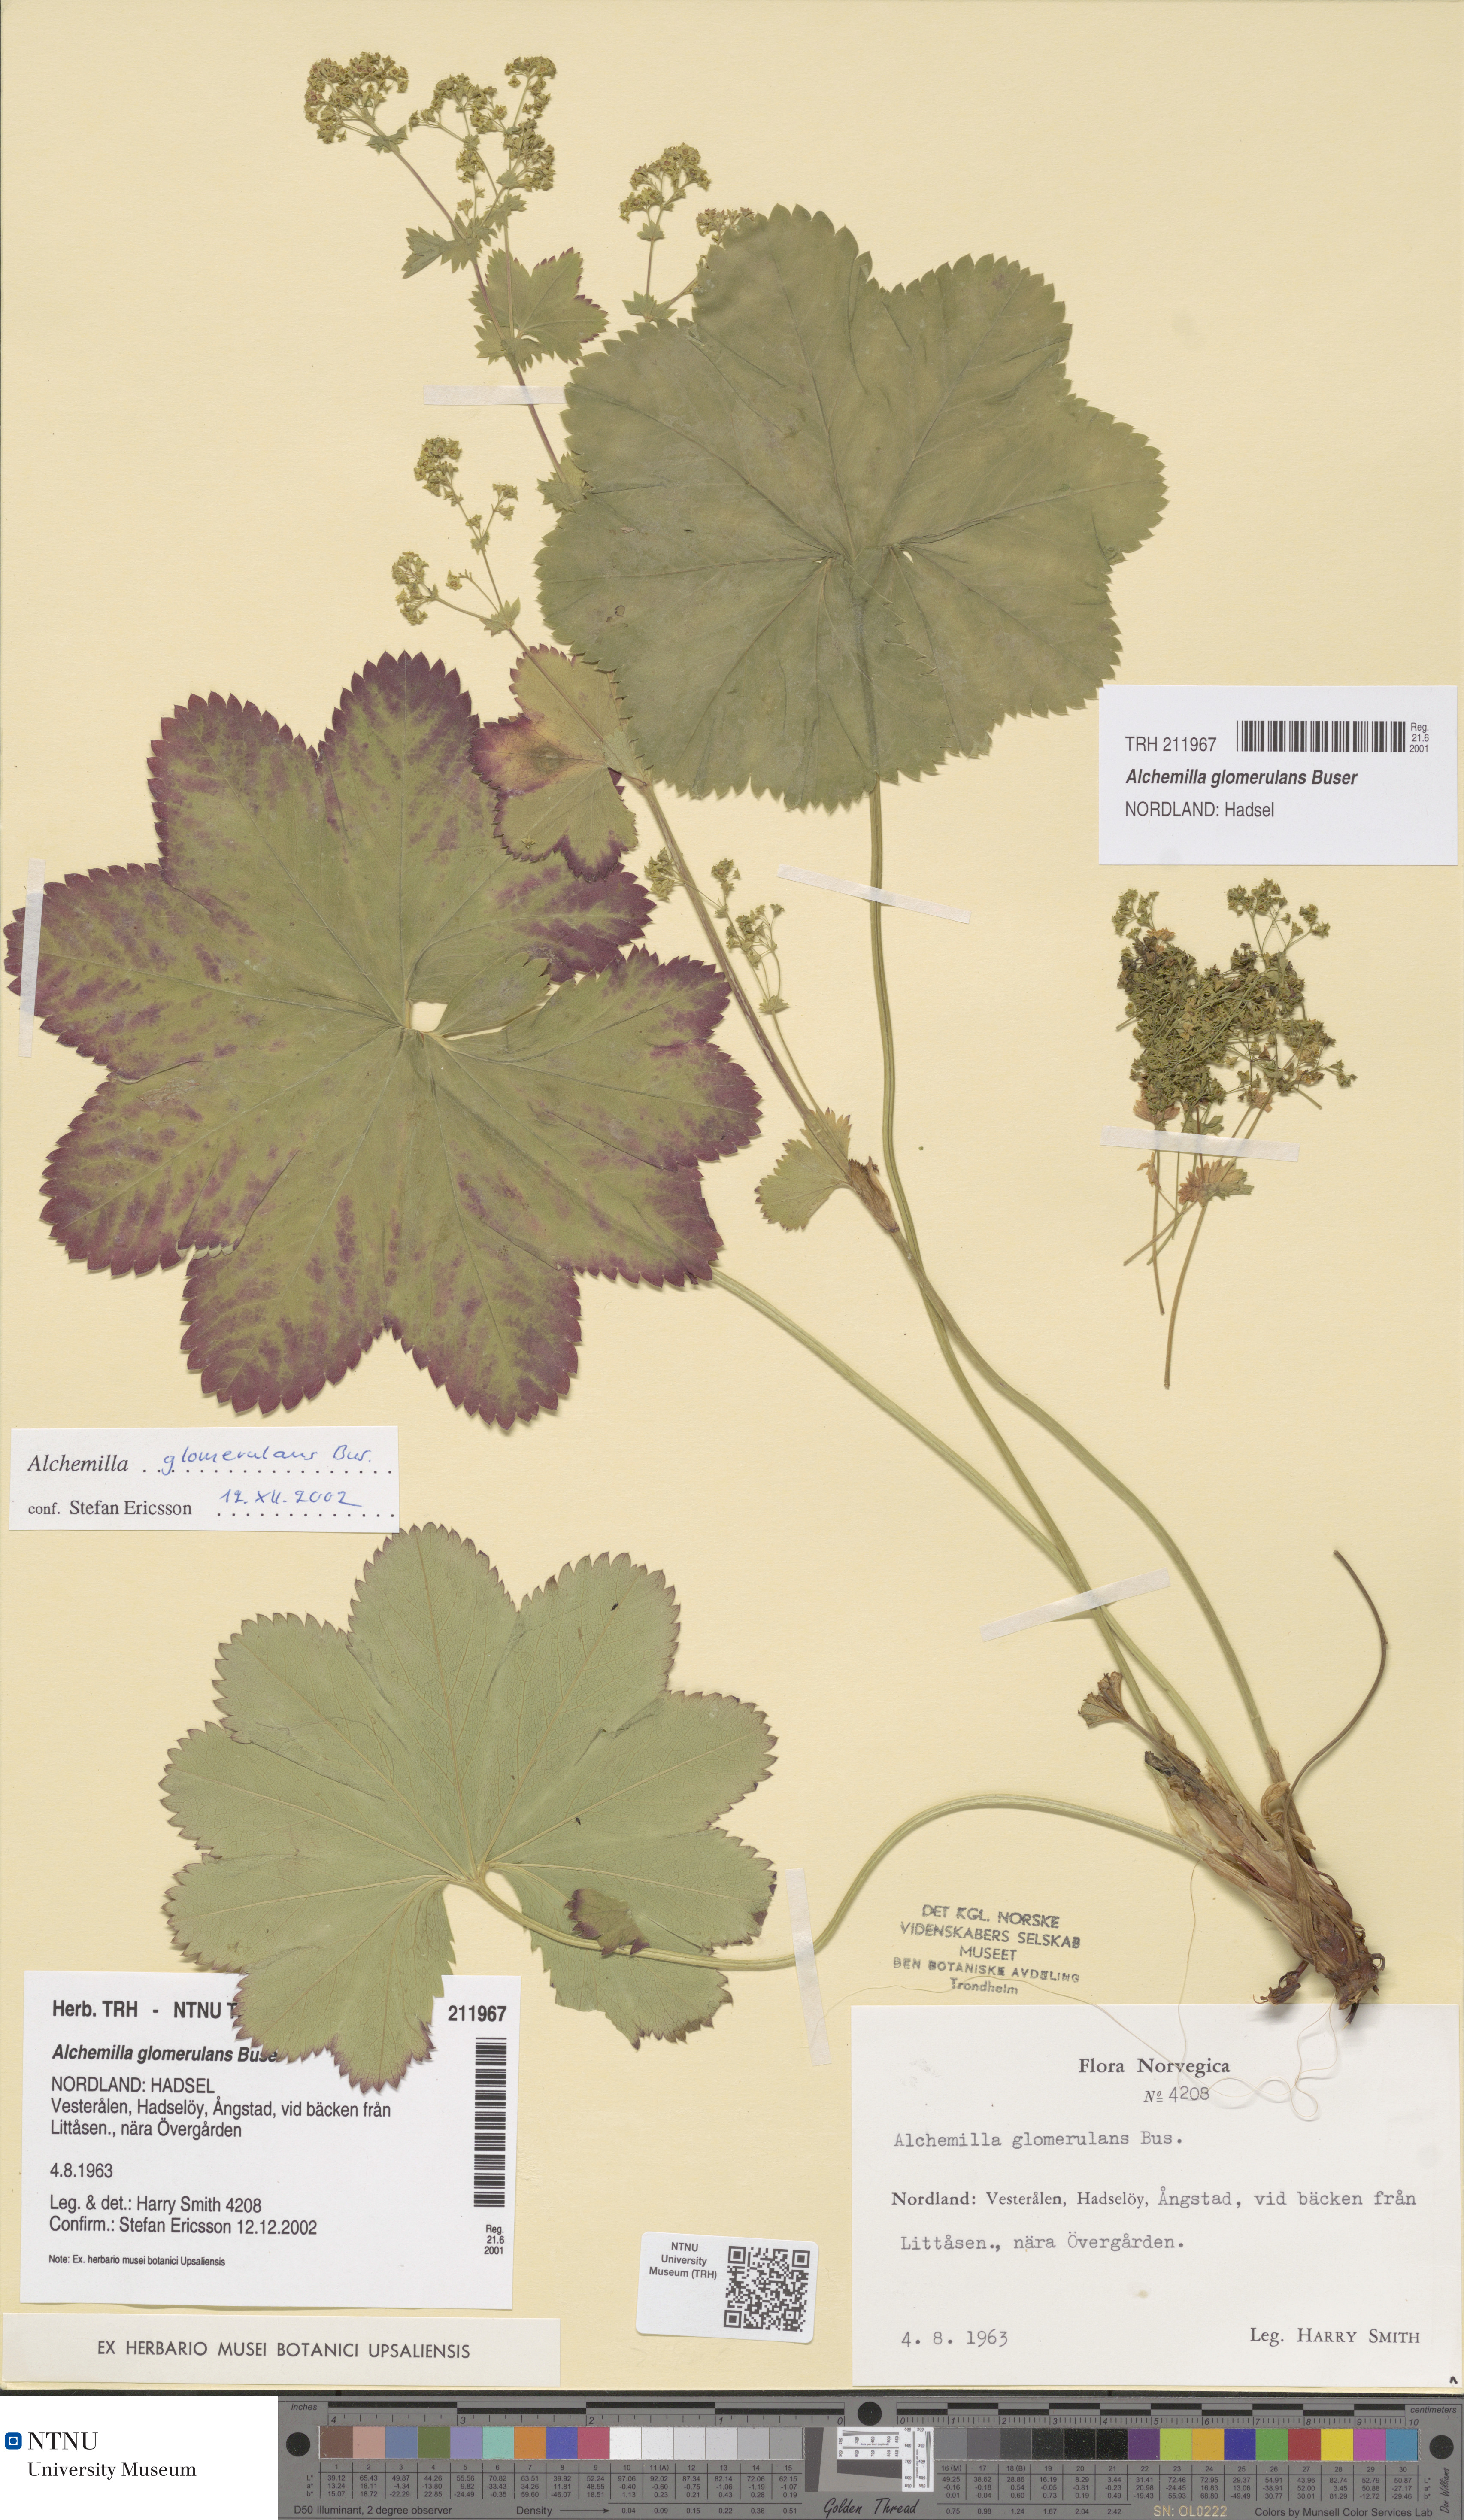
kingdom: Plantae
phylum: Tracheophyta
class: Magnoliopsida
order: Rosales
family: Rosaceae
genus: Alchemilla
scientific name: Alchemilla glomerulans
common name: Clustered lady's mantle
